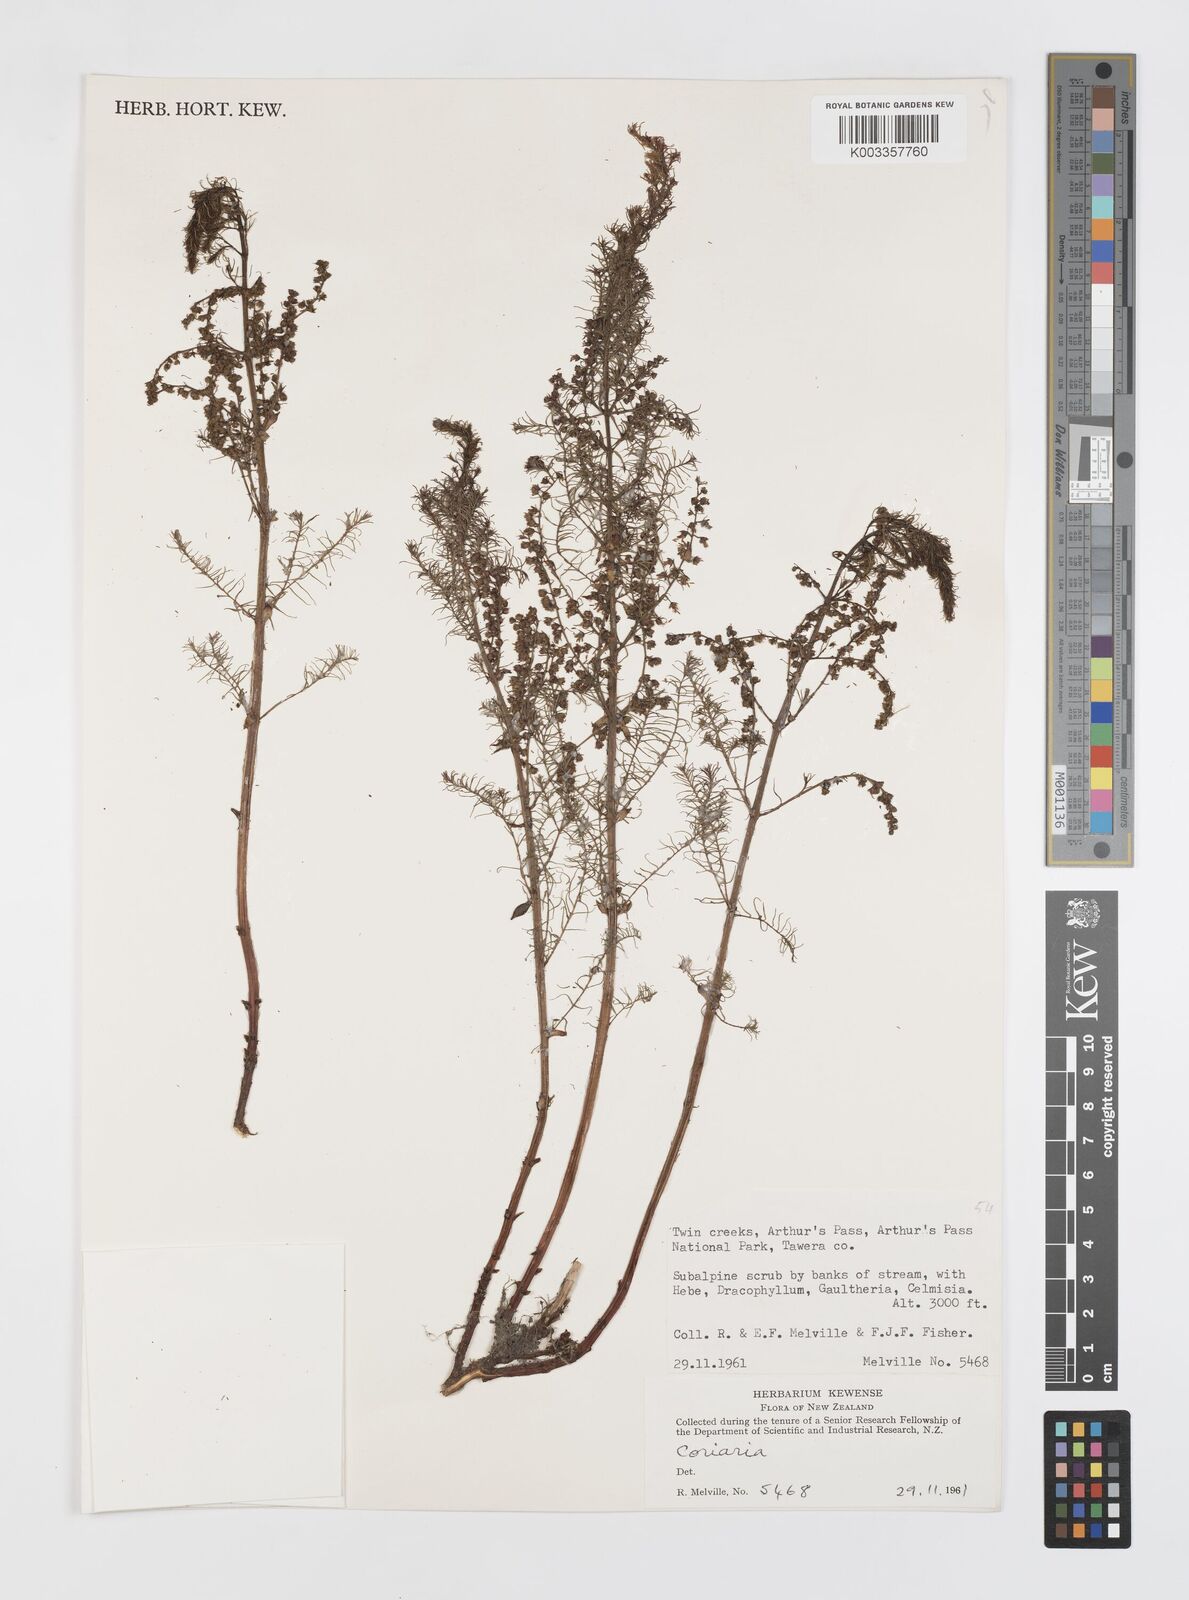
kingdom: Plantae
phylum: Tracheophyta
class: Magnoliopsida
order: Cucurbitales
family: Coriariaceae
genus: Coriaria
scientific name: Coriaria
